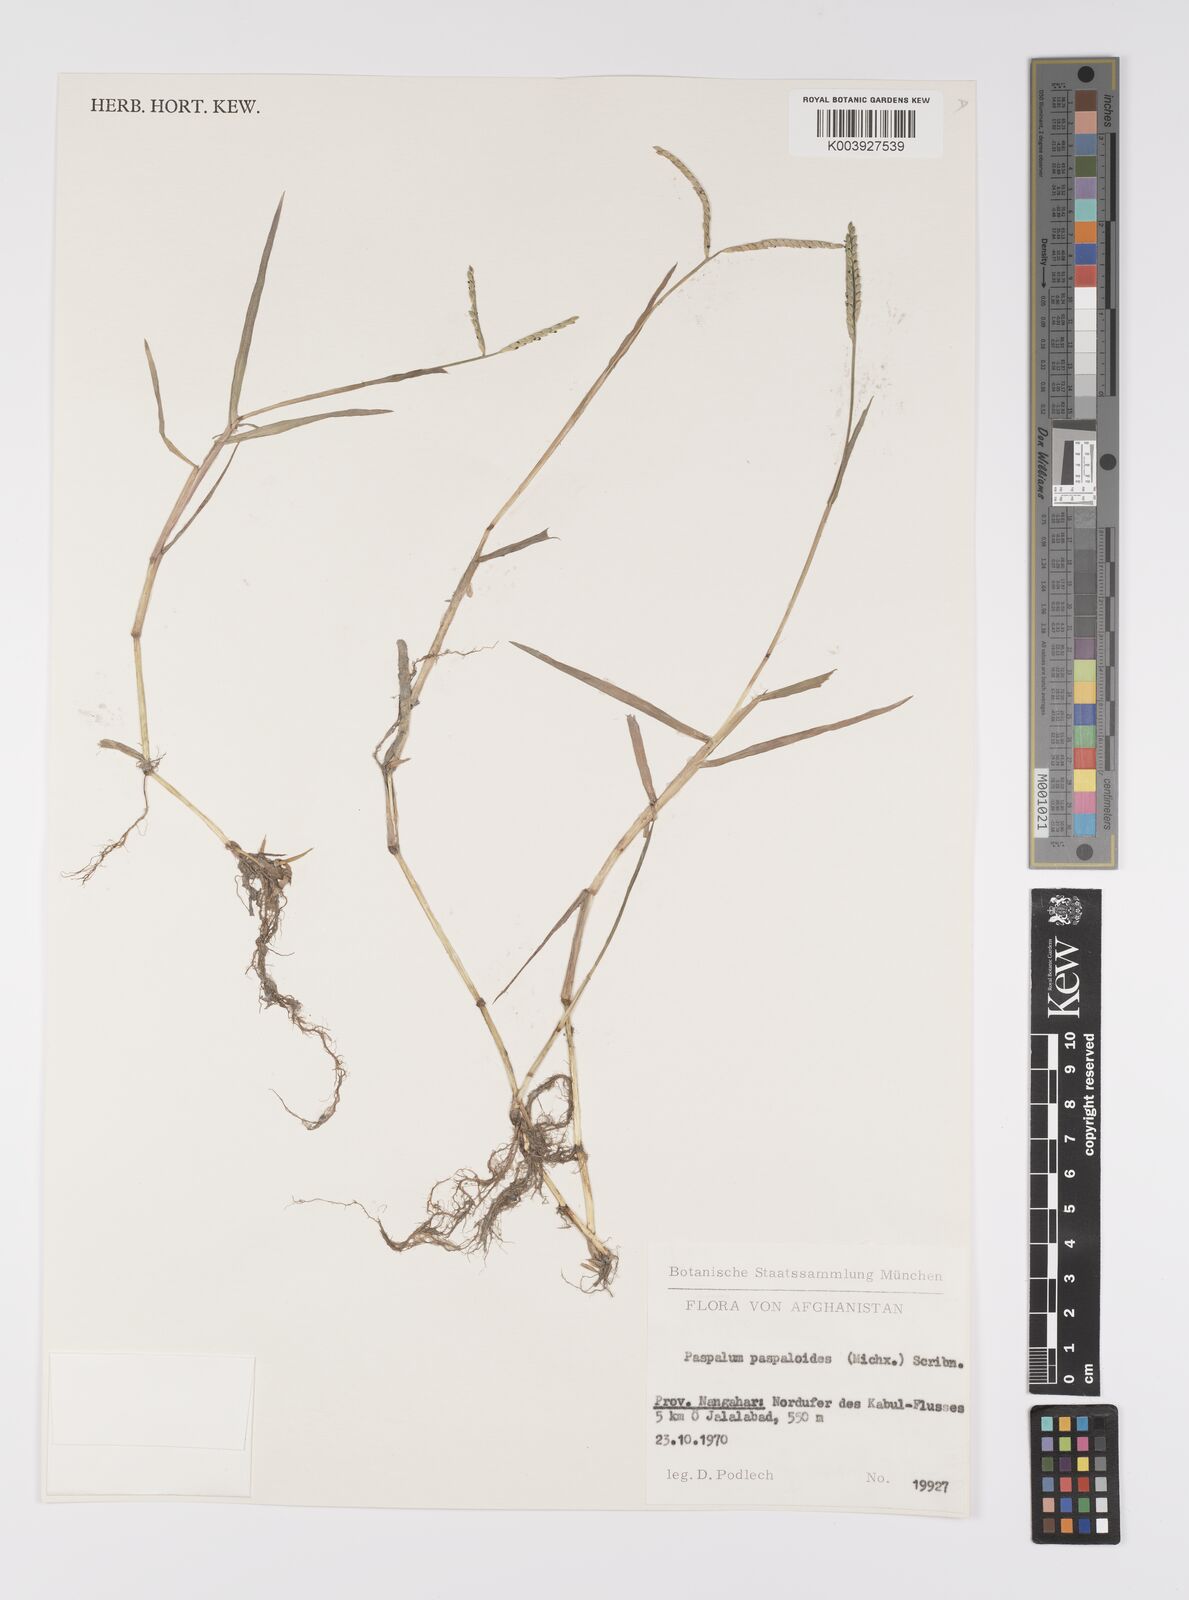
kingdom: Plantae
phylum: Tracheophyta
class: Liliopsida
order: Poales
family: Poaceae
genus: Paspalum
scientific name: Paspalum distichum
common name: Knotgrass
